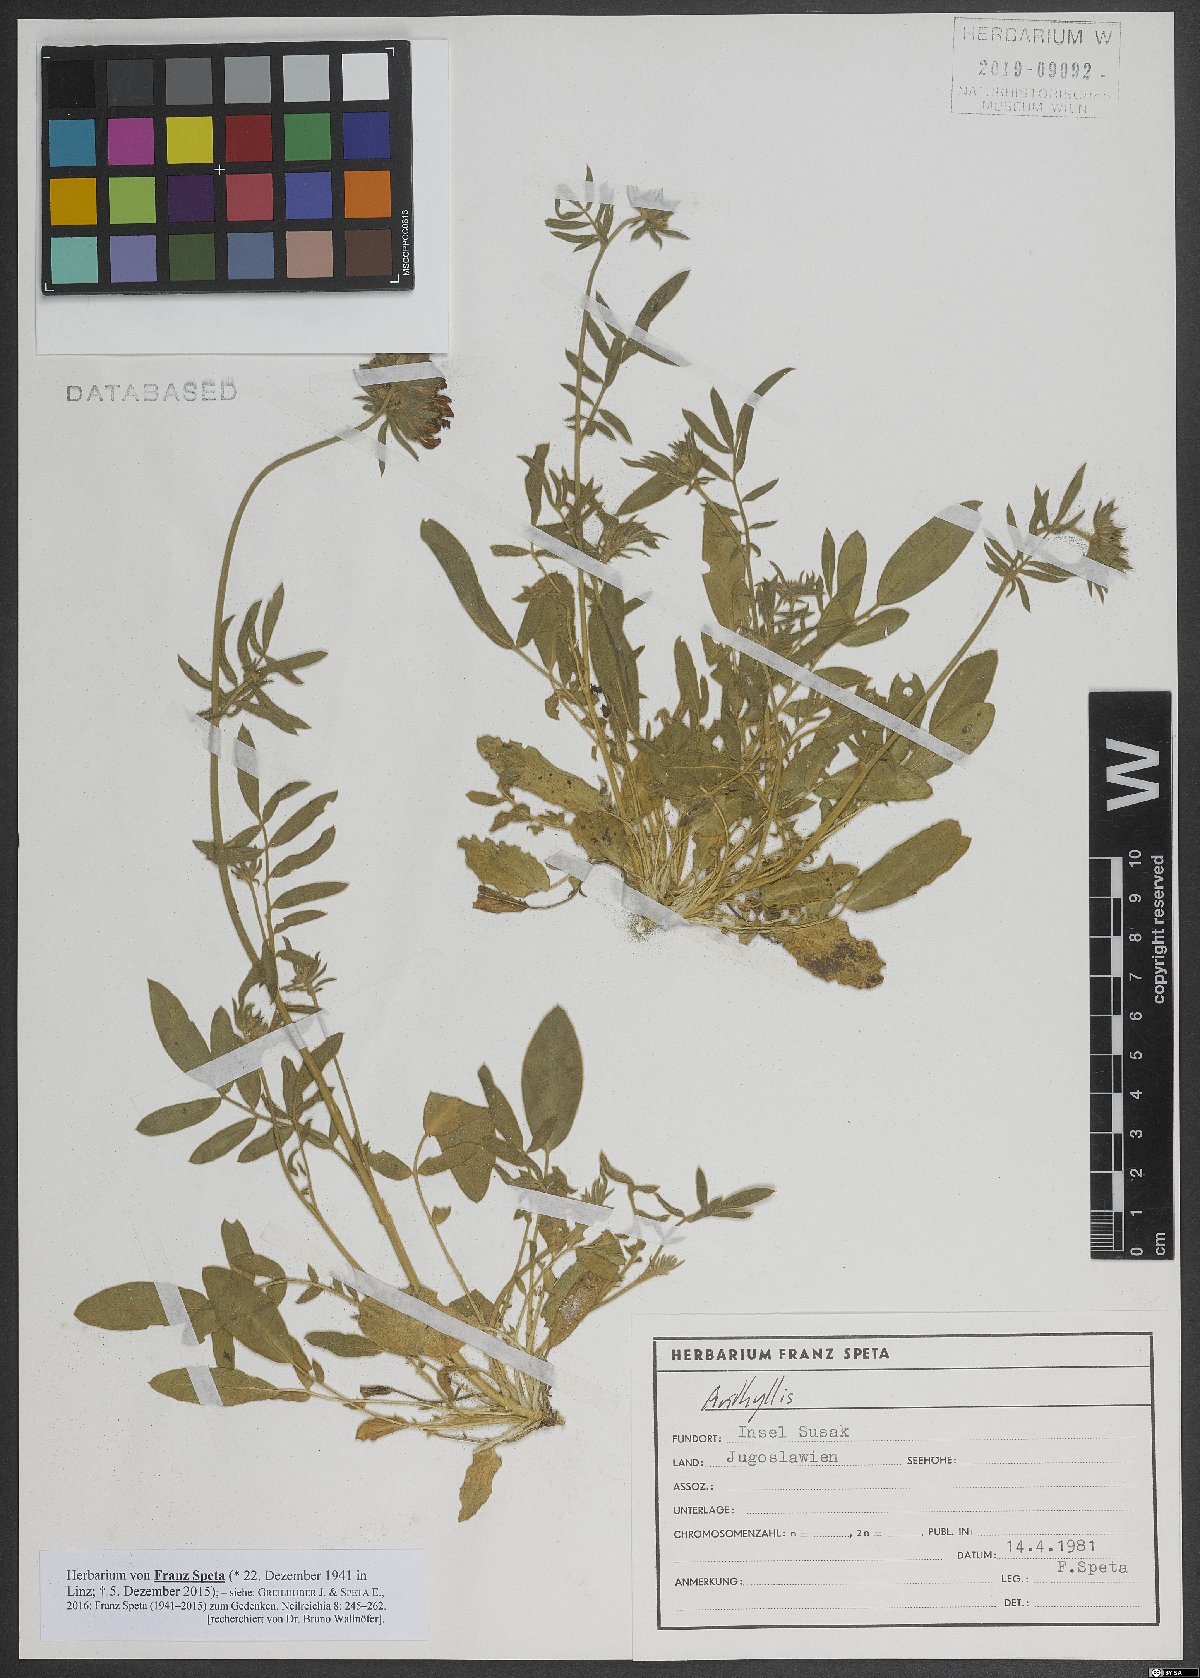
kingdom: Plantae
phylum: Tracheophyta
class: Magnoliopsida
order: Fabales
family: Fabaceae
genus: Anthyllis
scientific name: Anthyllis
